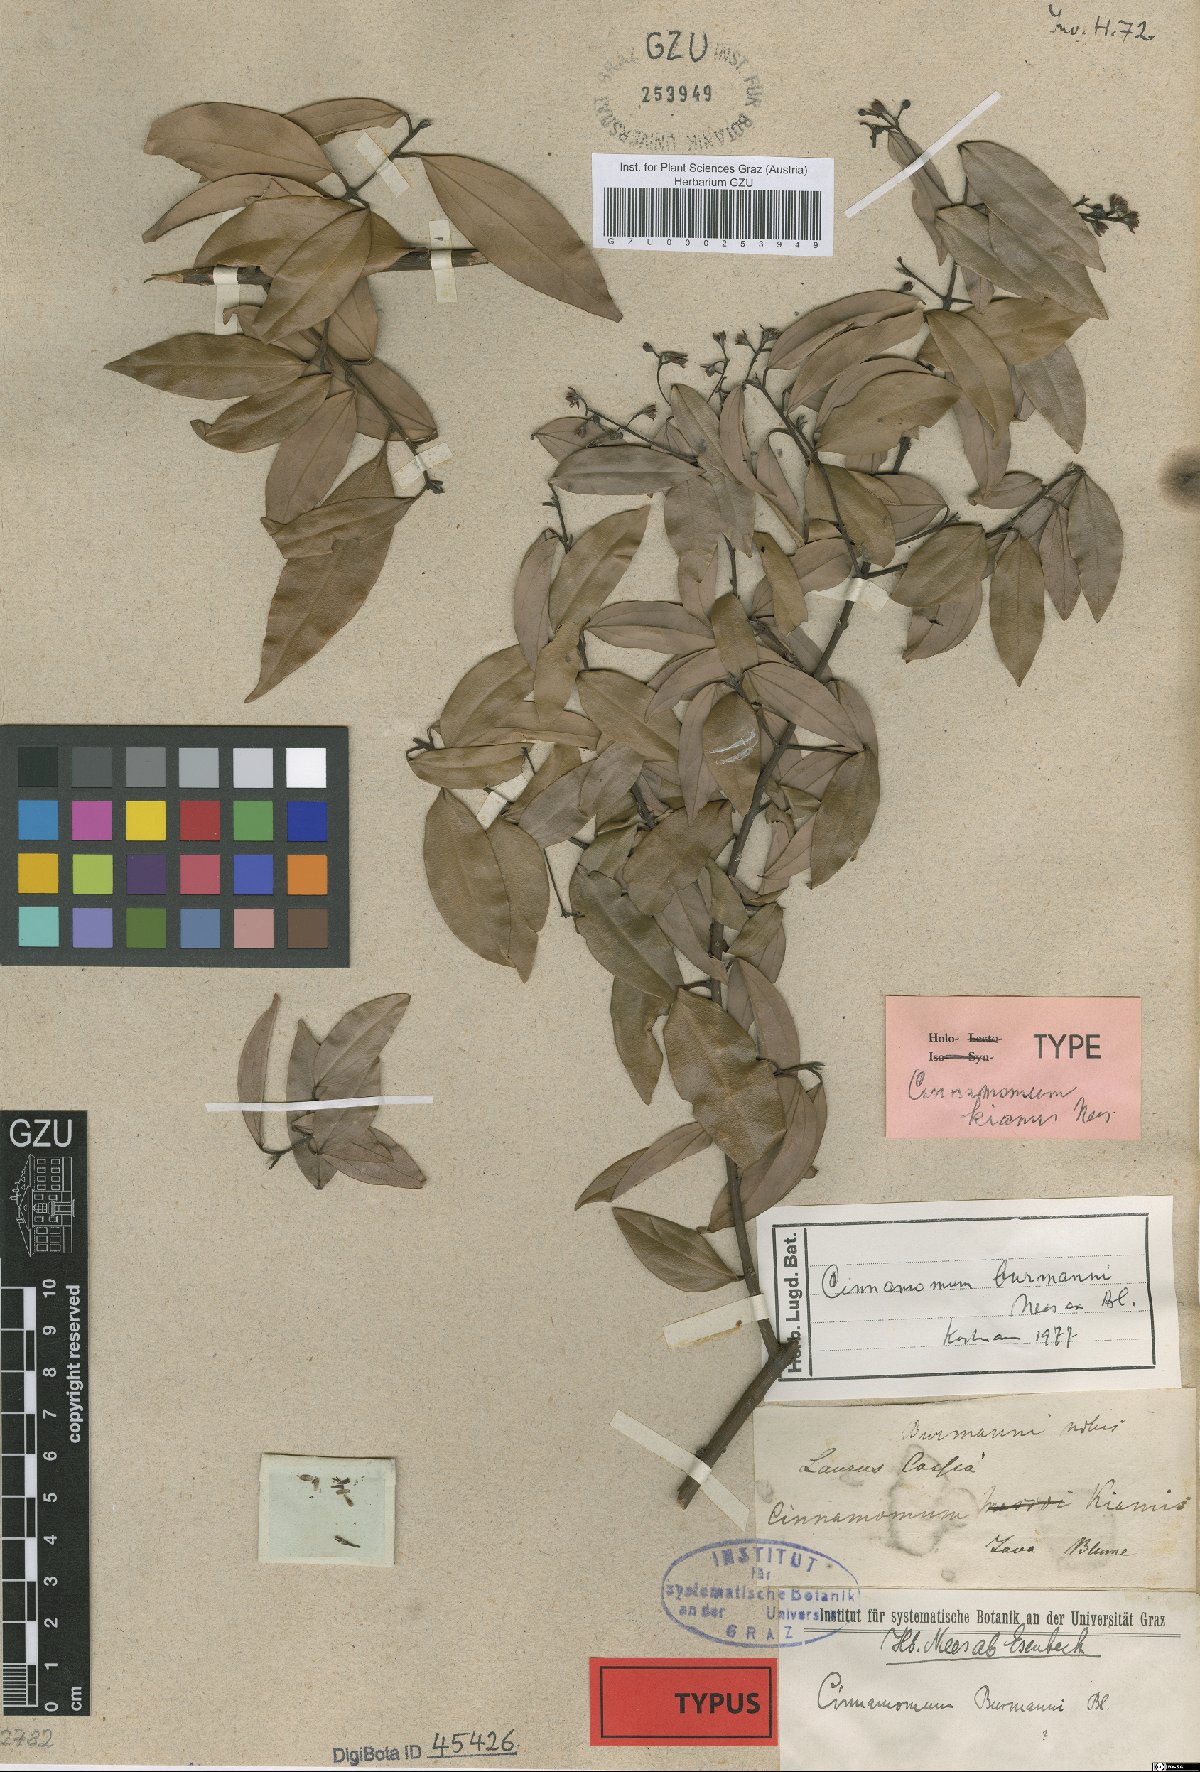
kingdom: Plantae
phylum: Tracheophyta
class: Magnoliopsida
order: Laurales
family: Lauraceae
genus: Cinnamomum
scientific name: Cinnamomum burmanni
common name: Padang cassia
